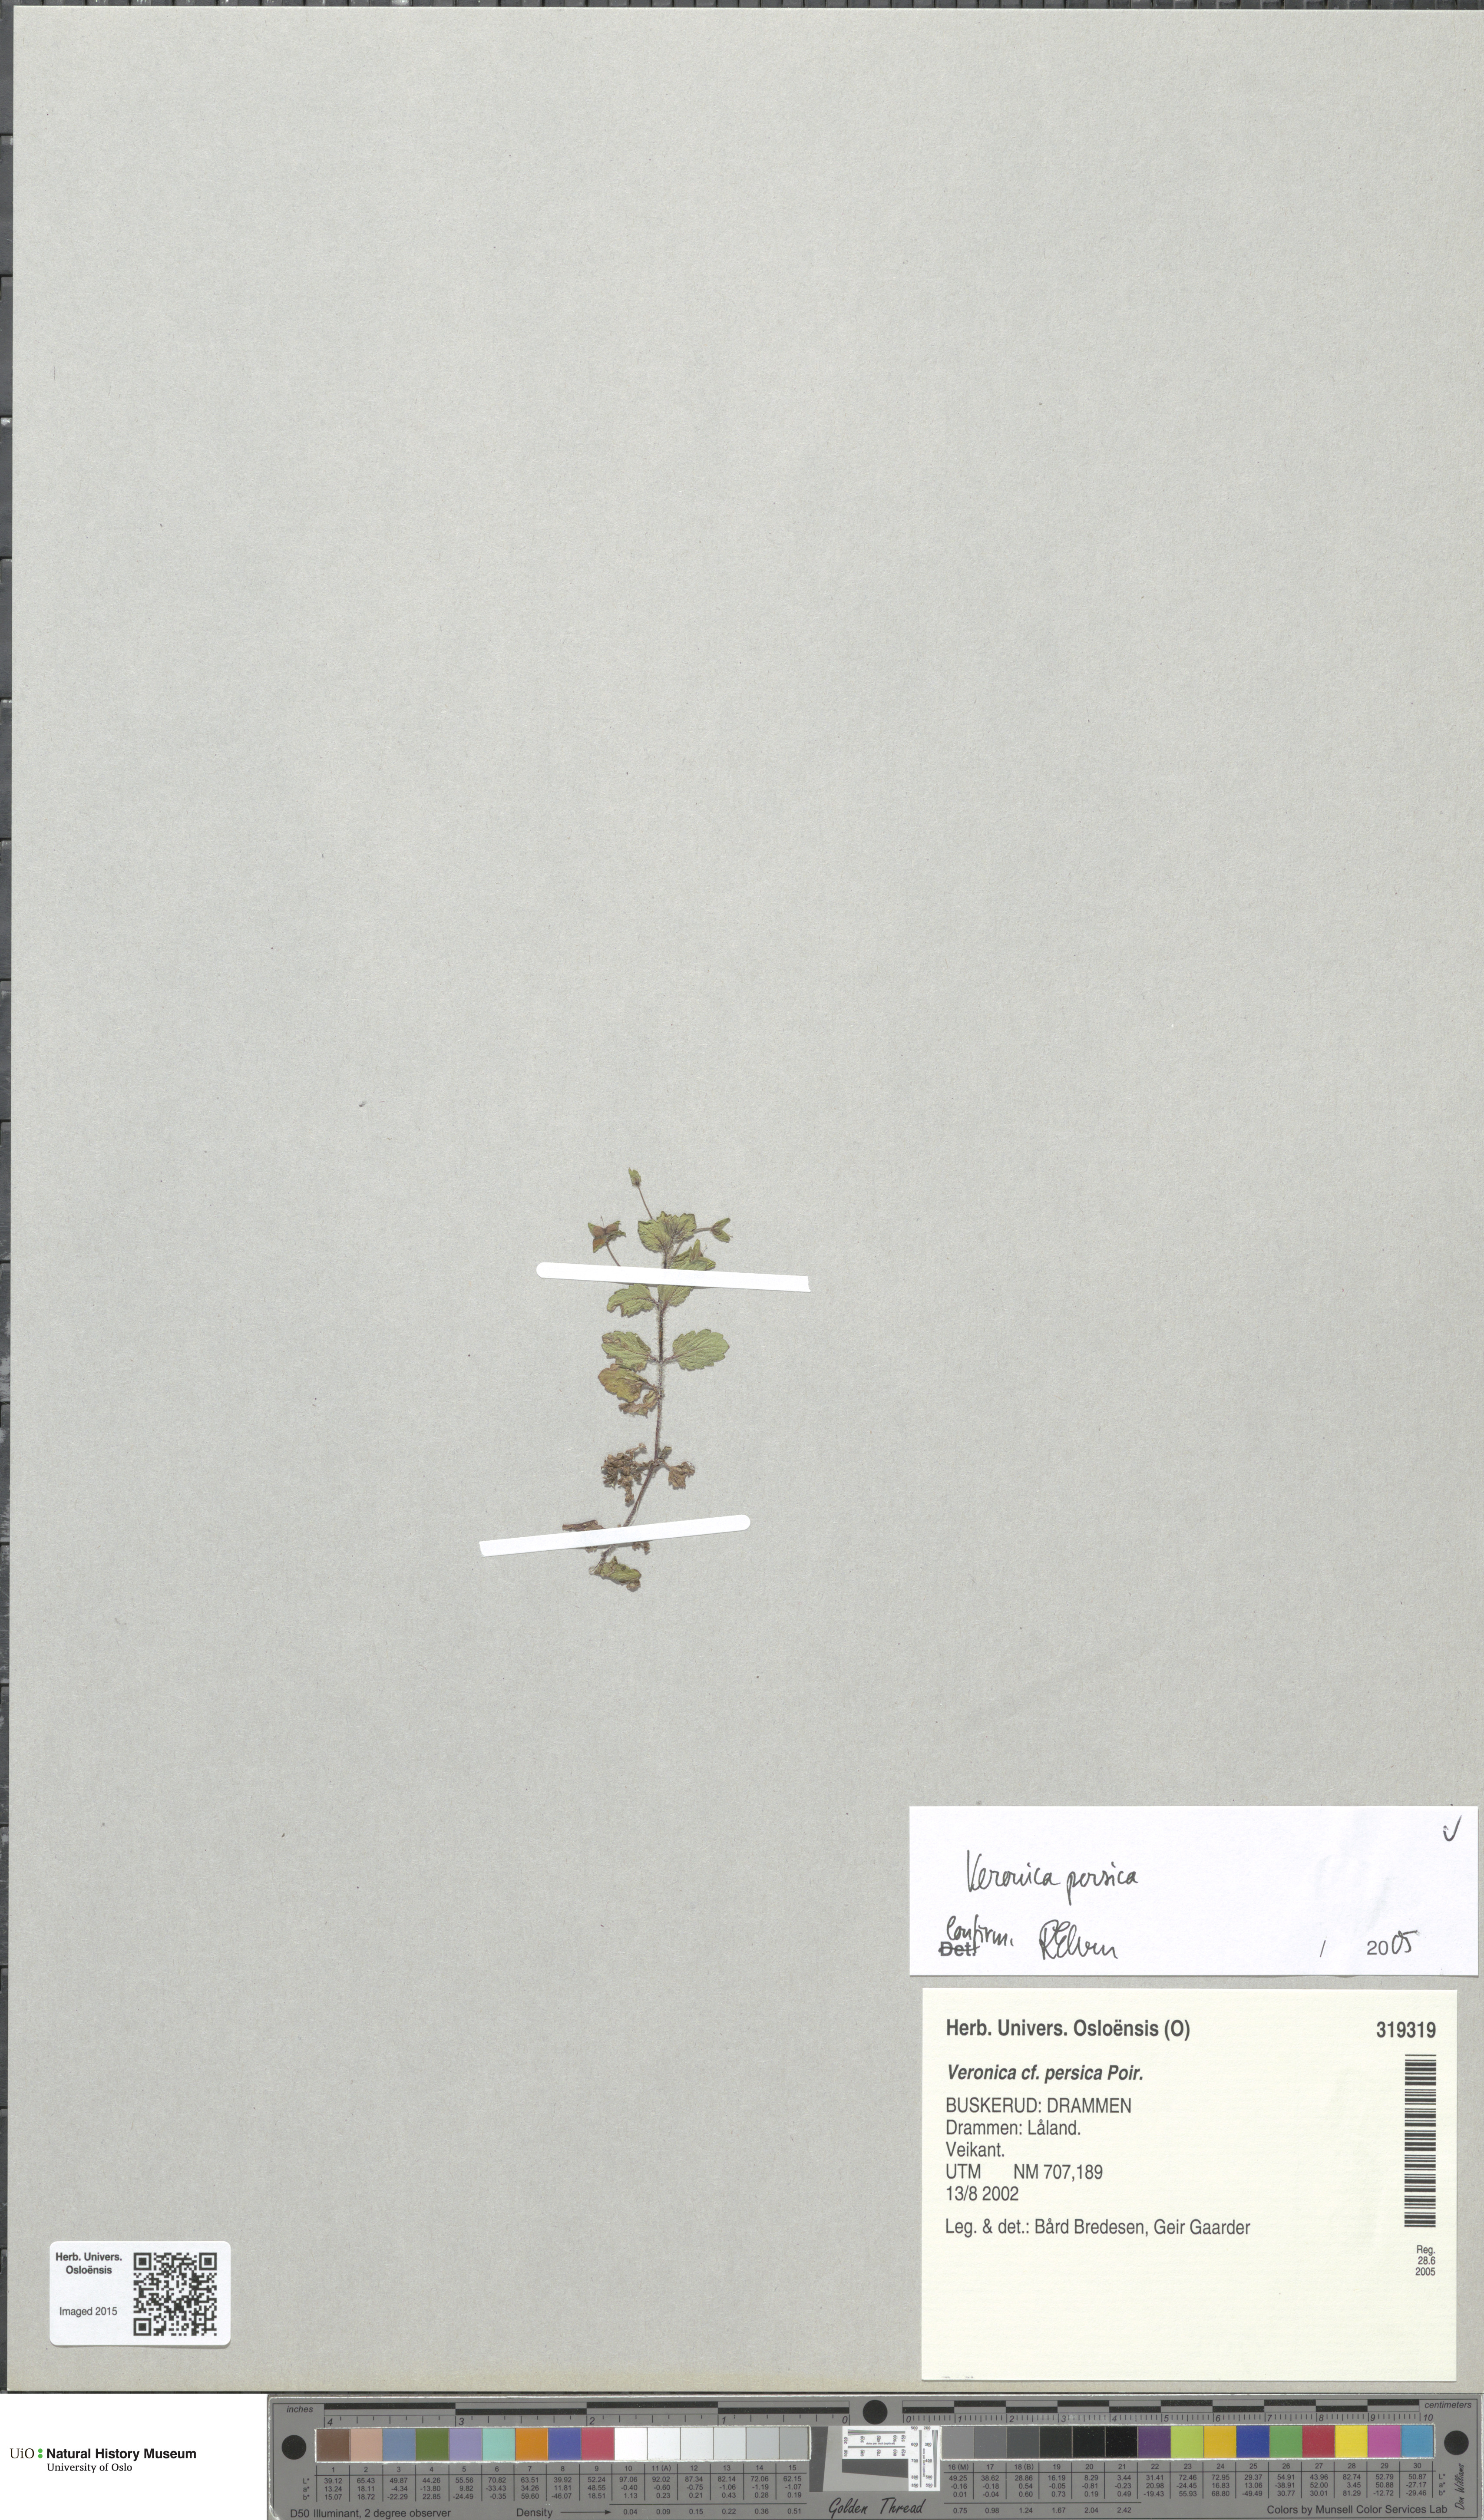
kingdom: Plantae
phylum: Tracheophyta
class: Magnoliopsida
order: Lamiales
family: Plantaginaceae
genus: Veronica
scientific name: Veronica persica
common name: Common field-speedwell
